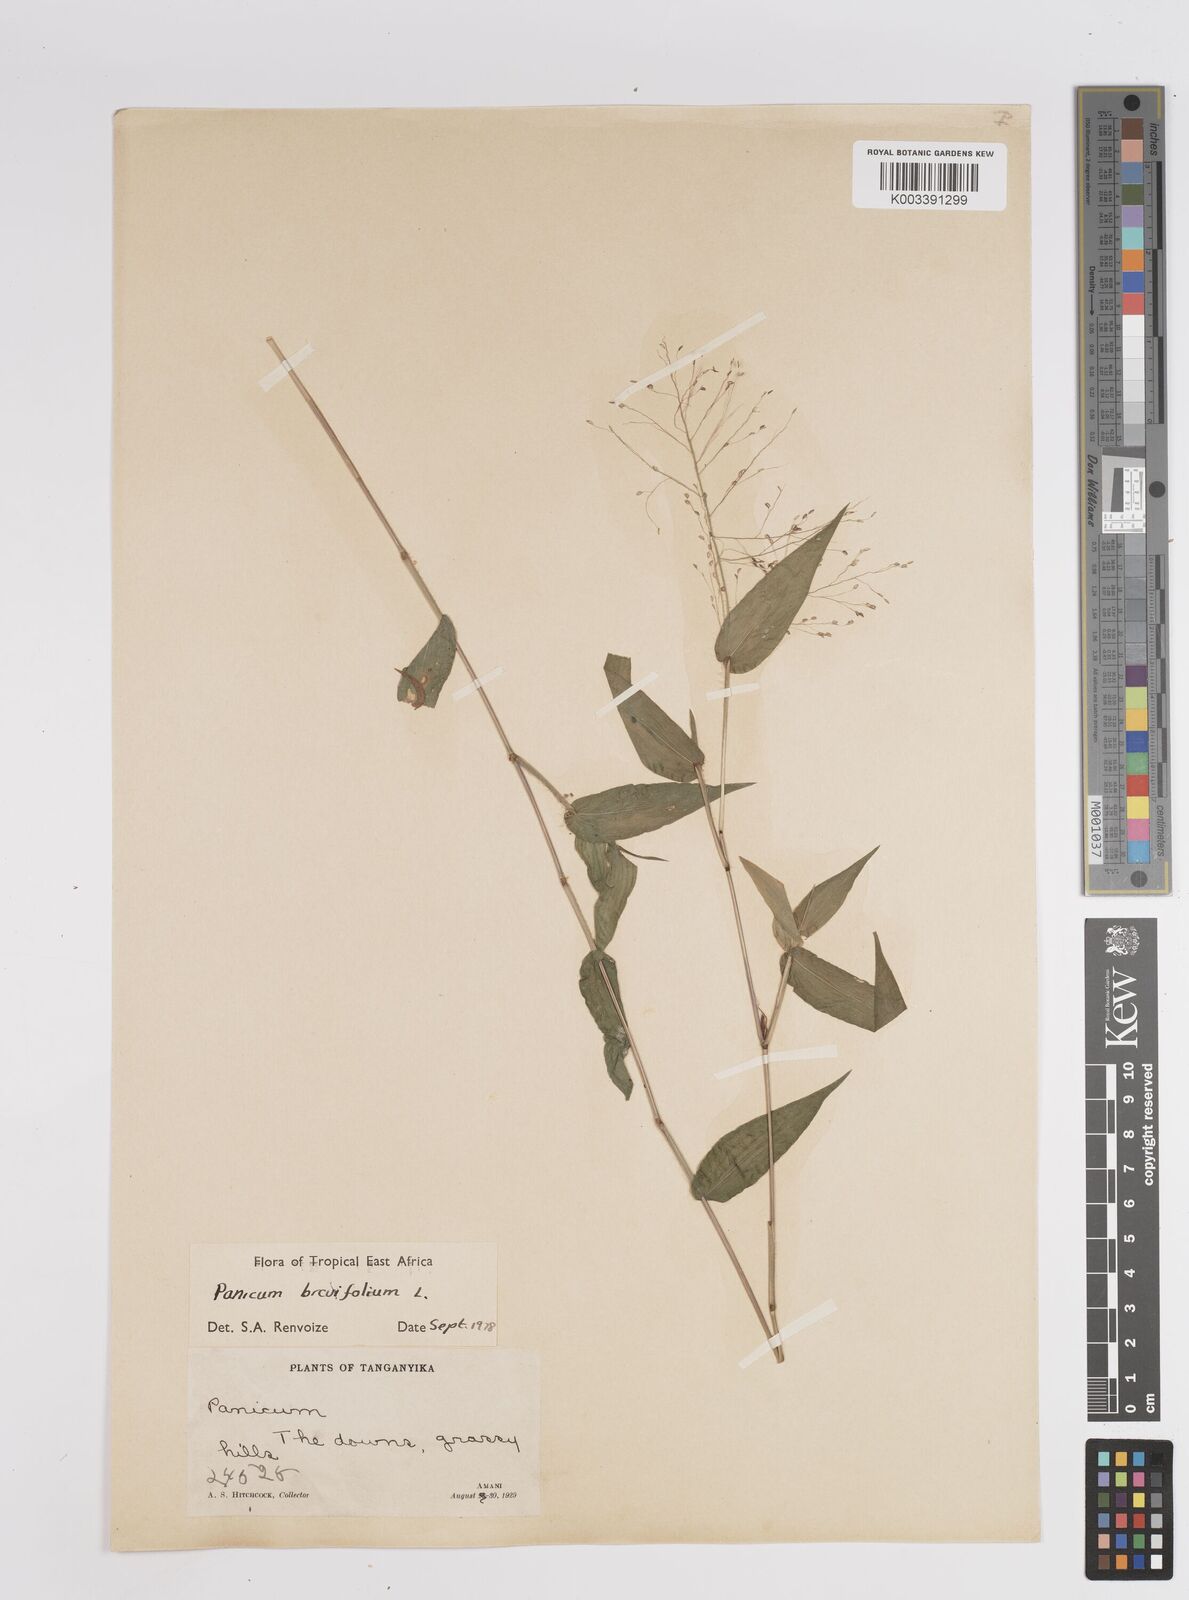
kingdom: Plantae
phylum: Tracheophyta
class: Liliopsida
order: Poales
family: Poaceae
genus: Panicum
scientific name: Panicum brevifolium
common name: Shortleaf panic grass
